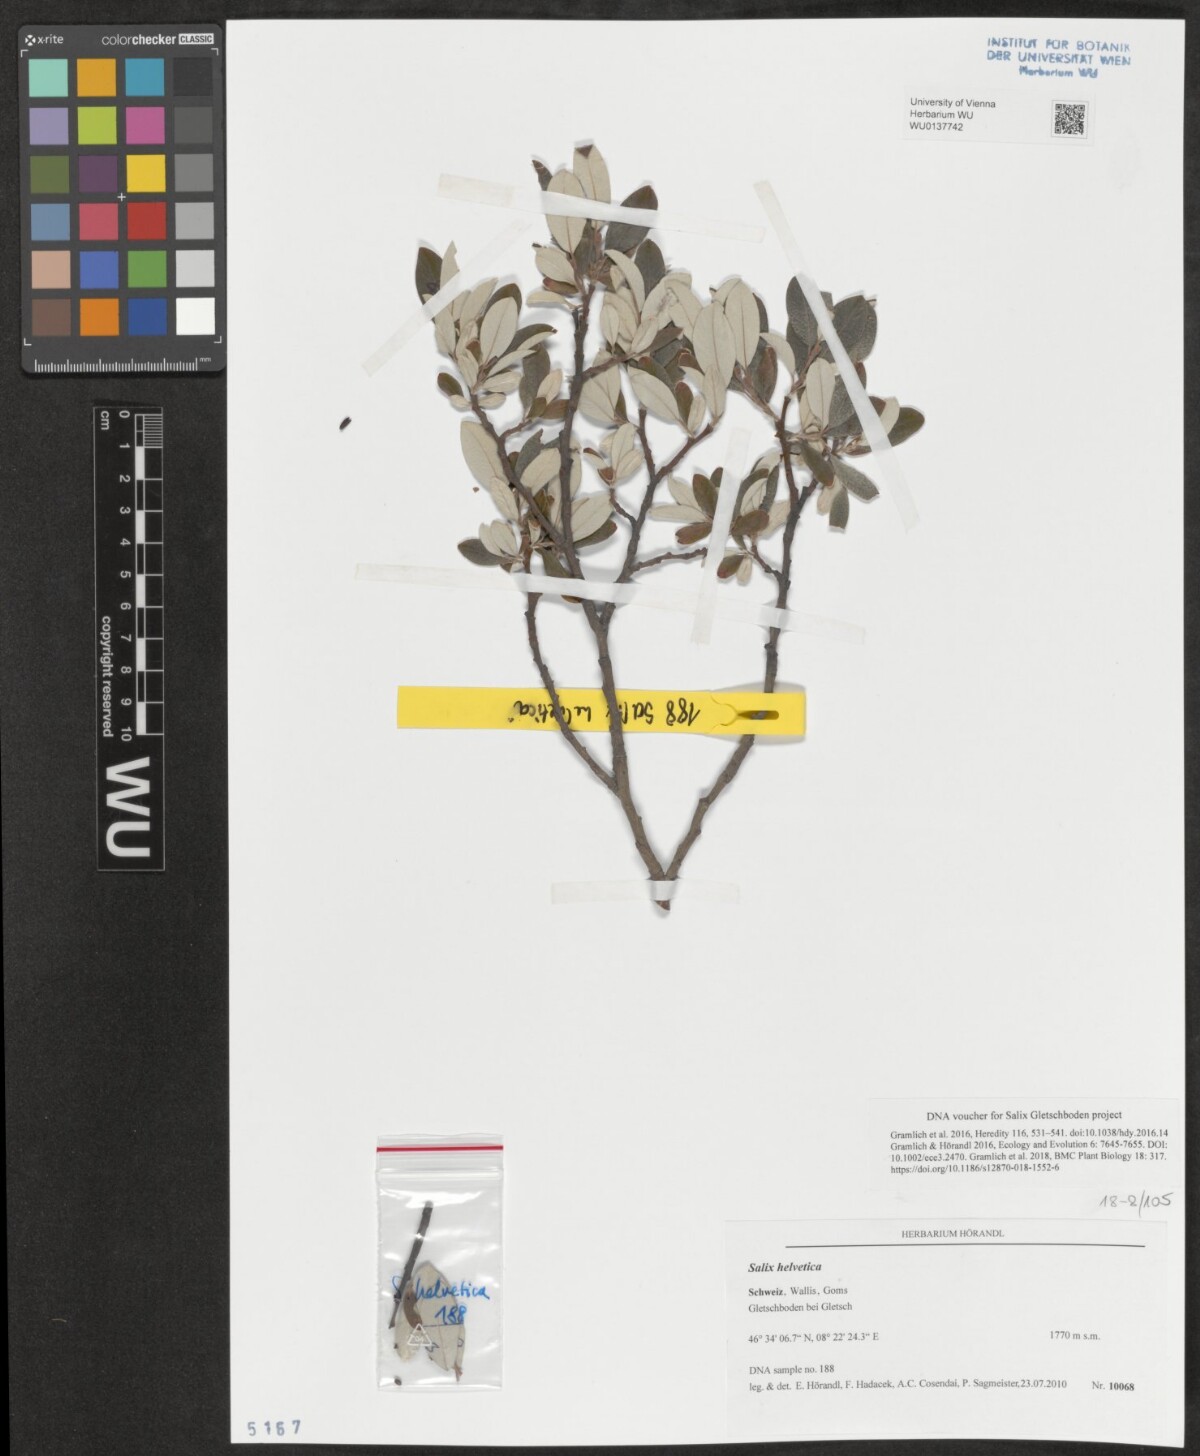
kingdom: Plantae
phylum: Tracheophyta
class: Magnoliopsida
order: Malpighiales
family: Salicaceae
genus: Salix
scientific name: Salix helvetica
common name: Swiss willow
